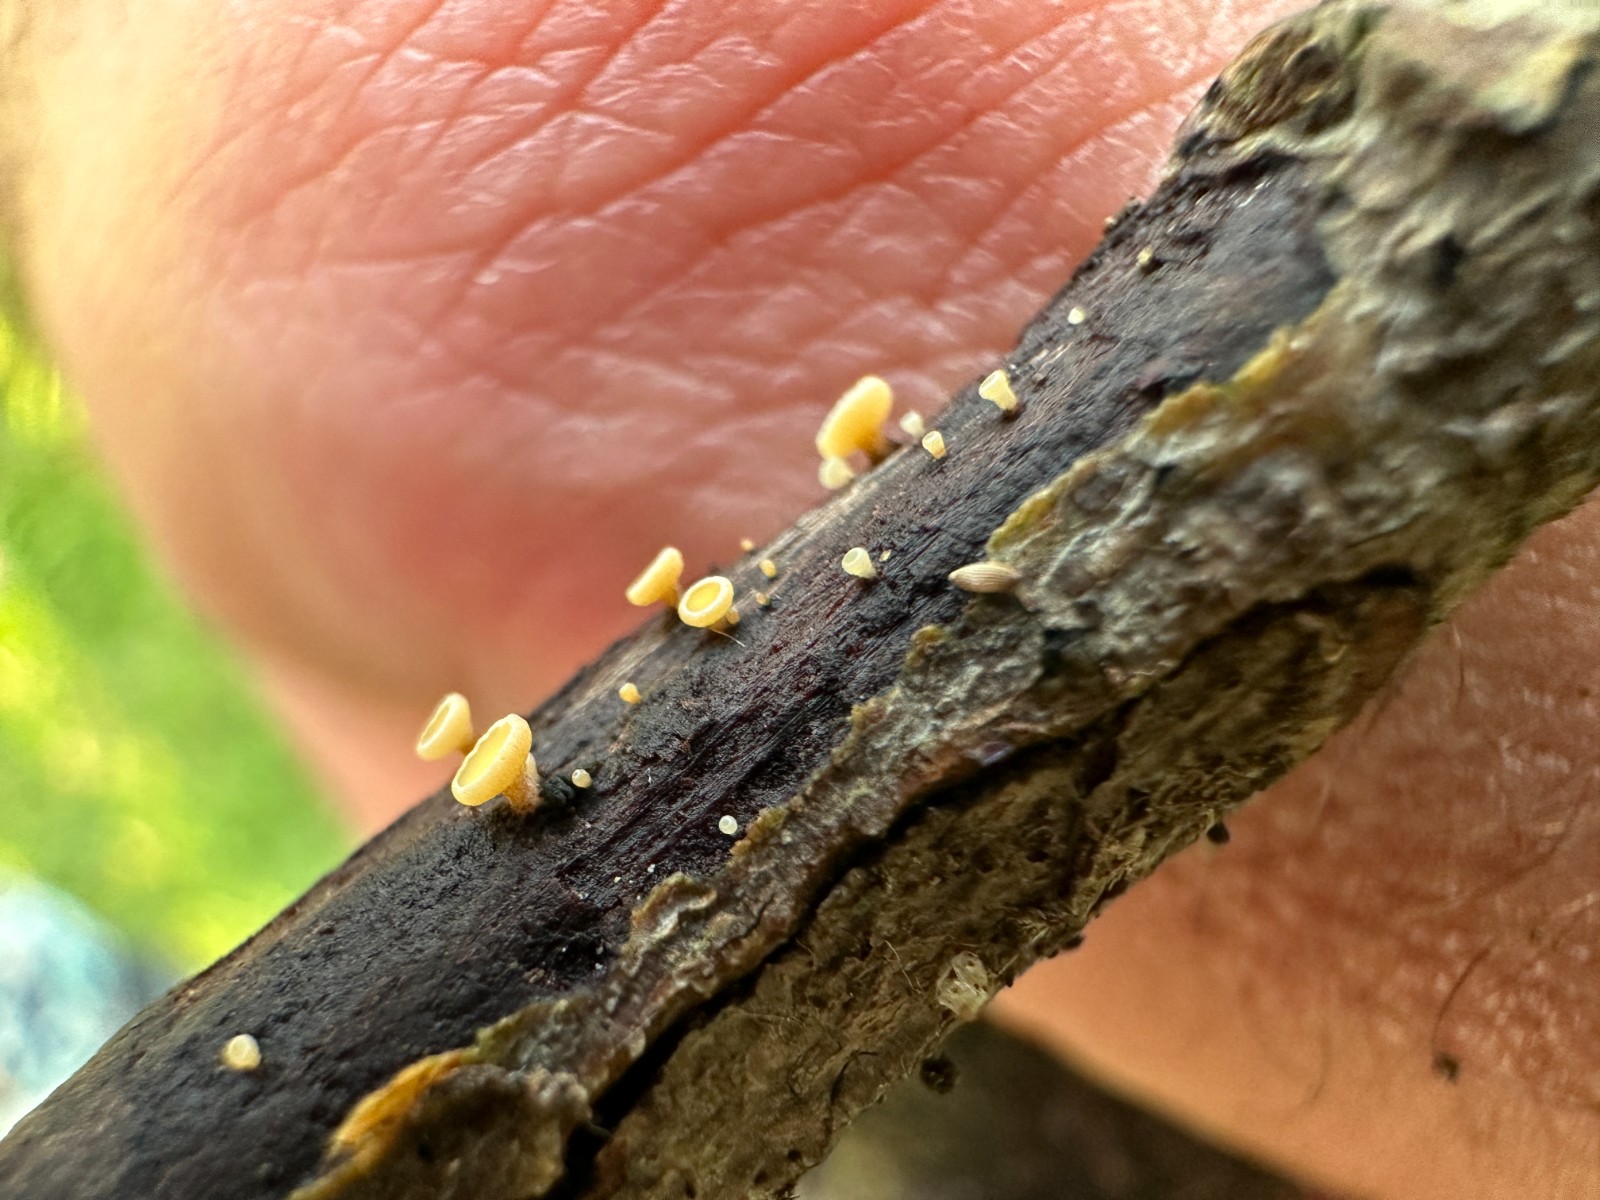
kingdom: Fungi
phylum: Ascomycota
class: Leotiomycetes
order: Helotiales
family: Helotiaceae
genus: Hymenoscyphus
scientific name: Hymenoscyphus
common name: stilkskive
